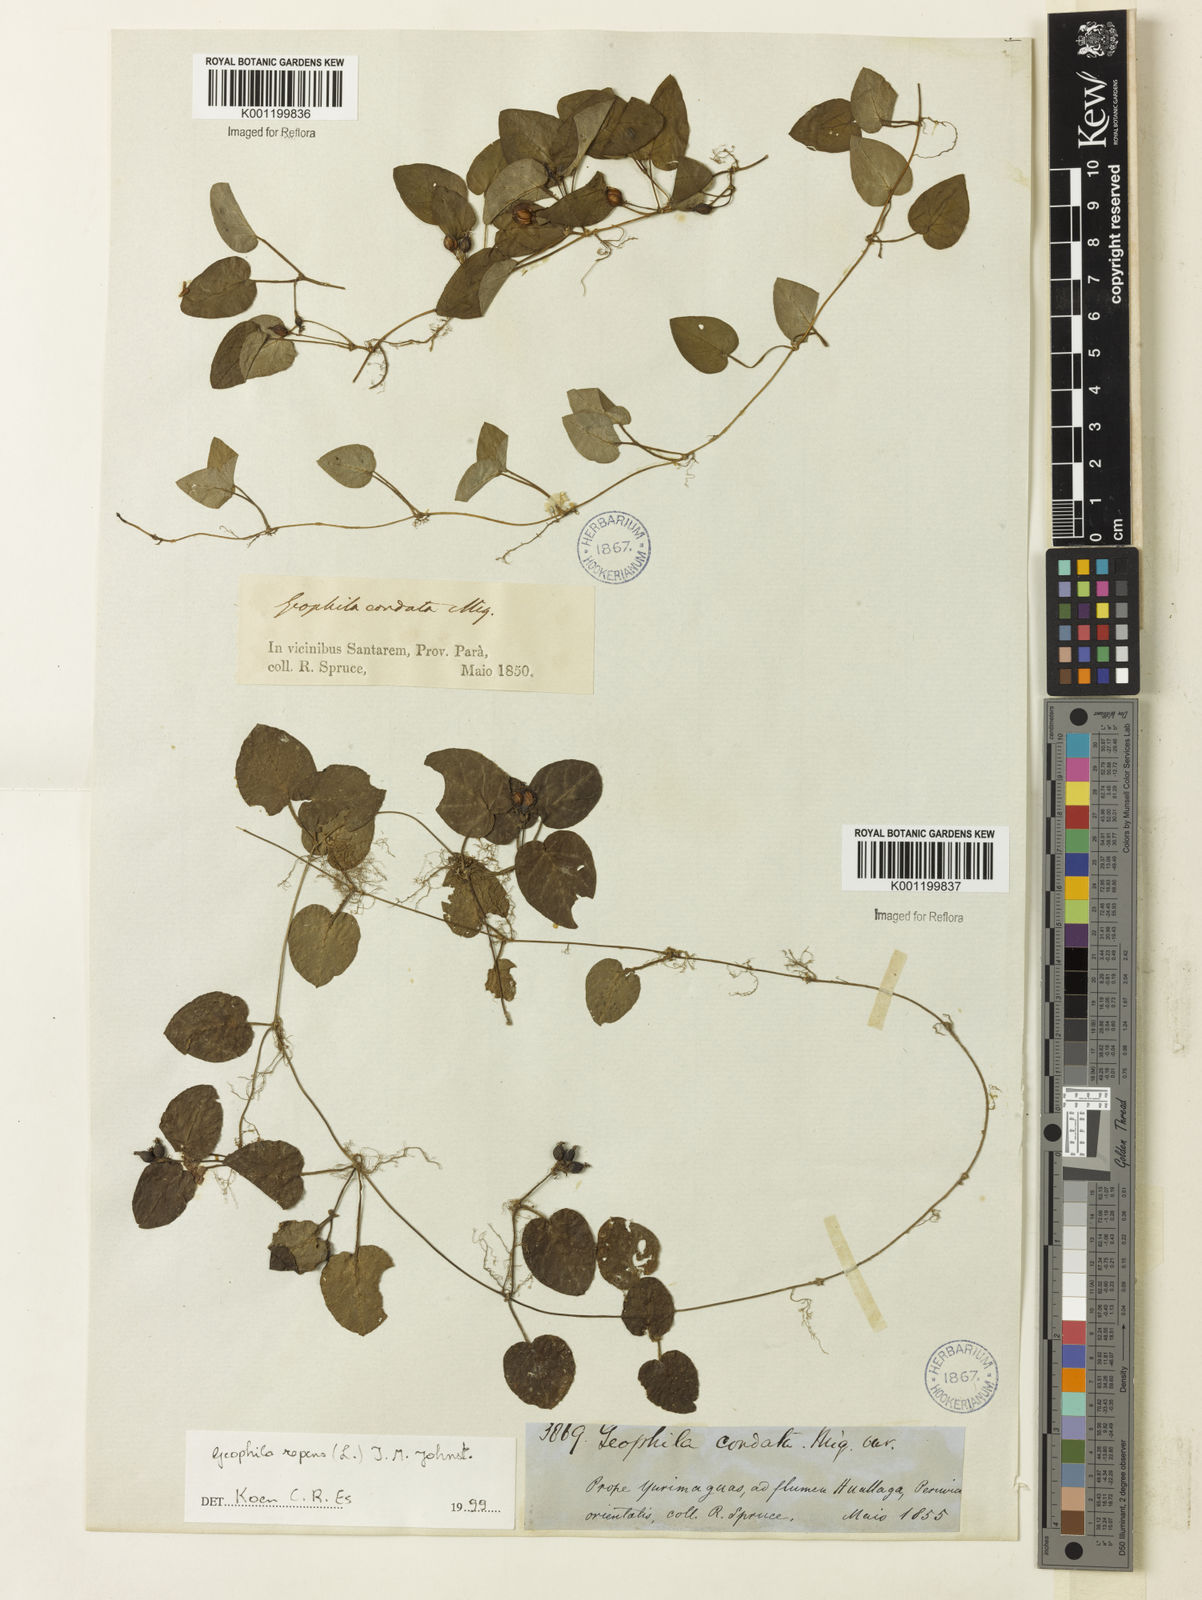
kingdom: Plantae
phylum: Tracheophyta
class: Magnoliopsida
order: Gentianales
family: Rubiaceae
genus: Geophila
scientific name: Geophila repens
